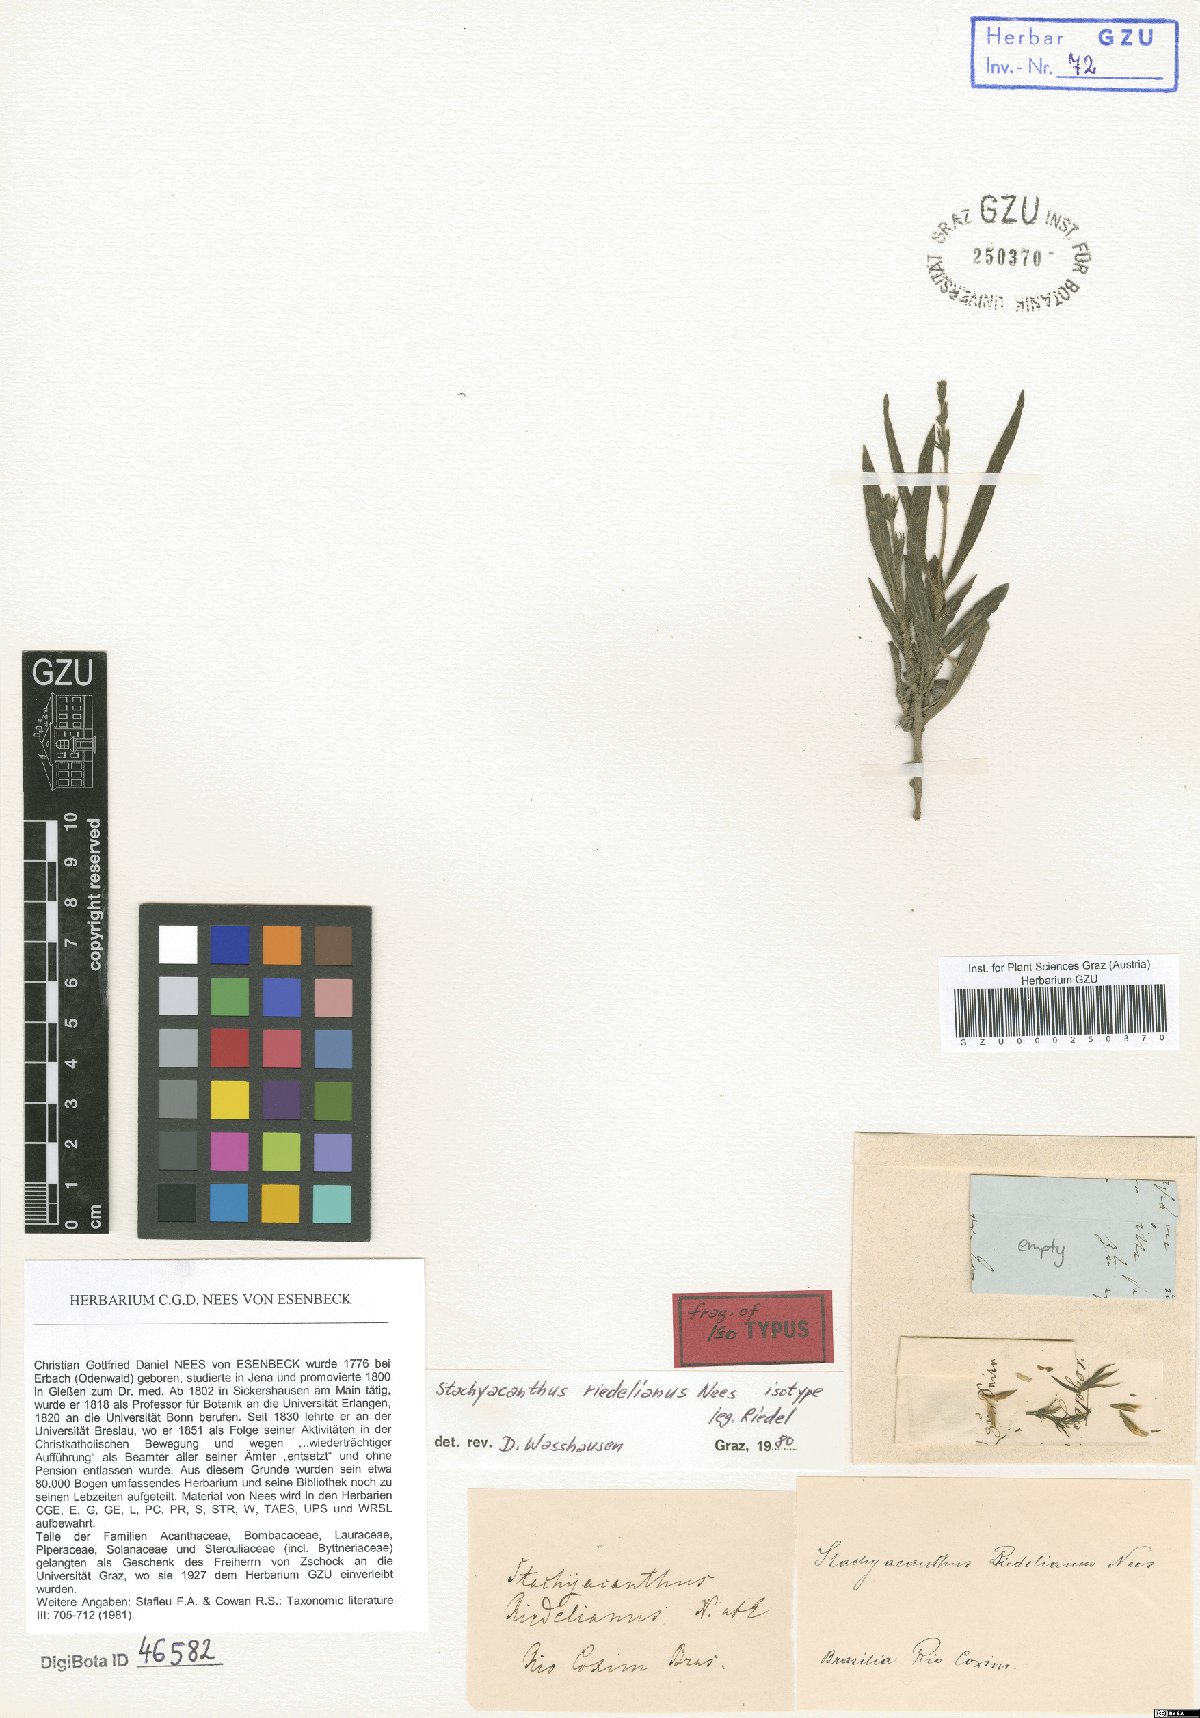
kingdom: Plantae
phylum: Tracheophyta
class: Magnoliopsida
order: Lamiales
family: Acanthaceae
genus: Stachyacanthus
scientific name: Stachyacanthus riedelianus
